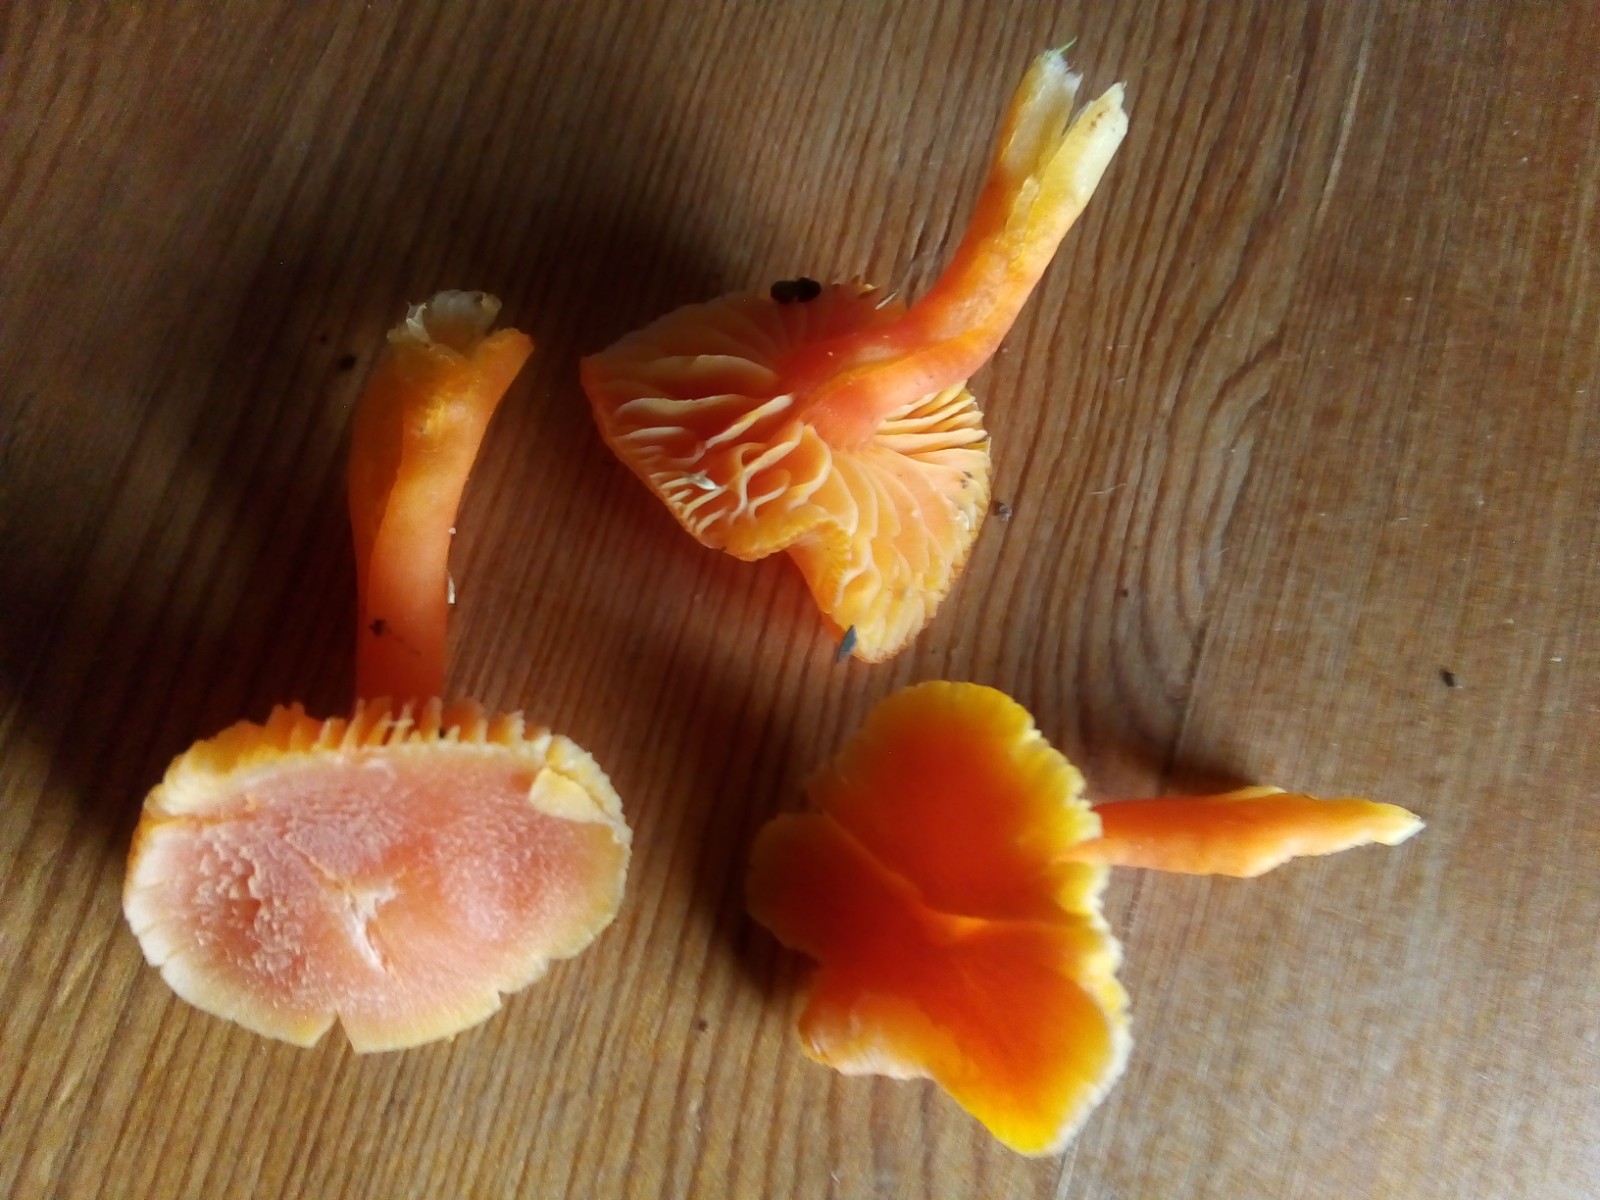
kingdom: Fungi
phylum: Basidiomycota
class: Agaricomycetes
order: Agaricales
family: Hygrophoraceae
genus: Hygrocybe
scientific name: Hygrocybe miniata
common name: mønje-vokshat
